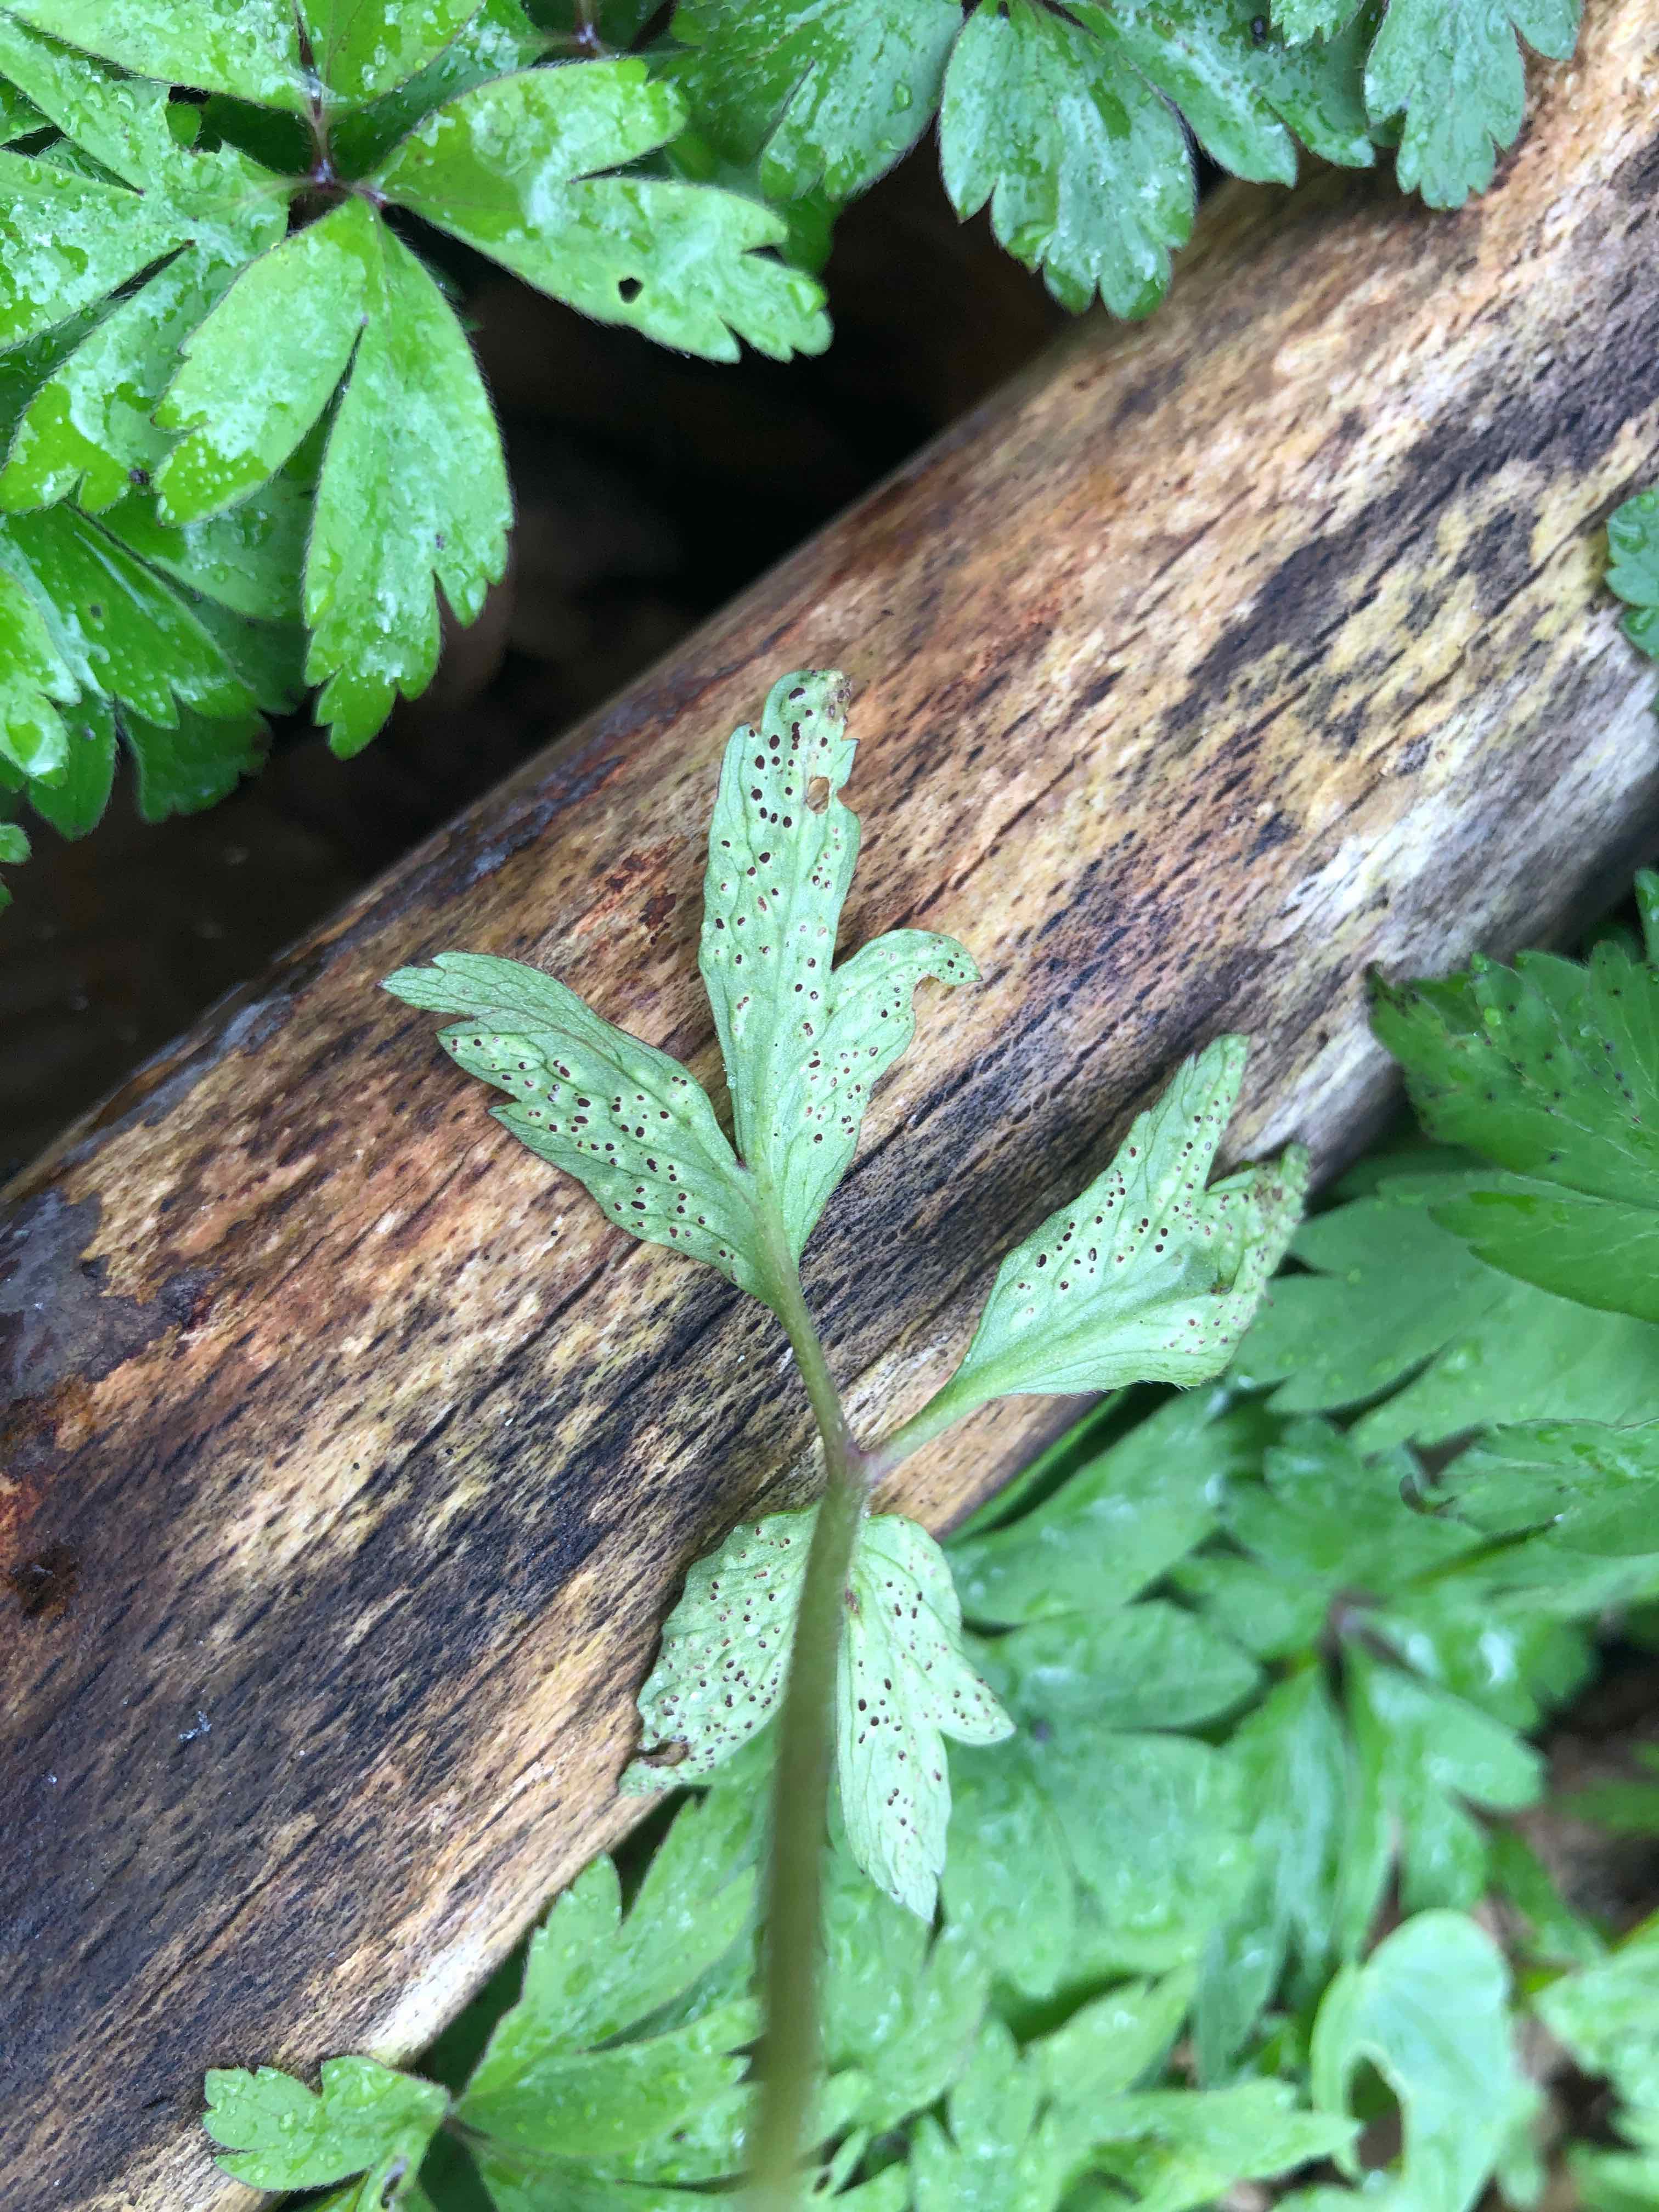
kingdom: Fungi
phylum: Basidiomycota
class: Pucciniomycetes
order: Pucciniales
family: Tranzscheliaceae
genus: Tranzschelia
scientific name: Tranzschelia anemones
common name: anemone-knæksporerust
